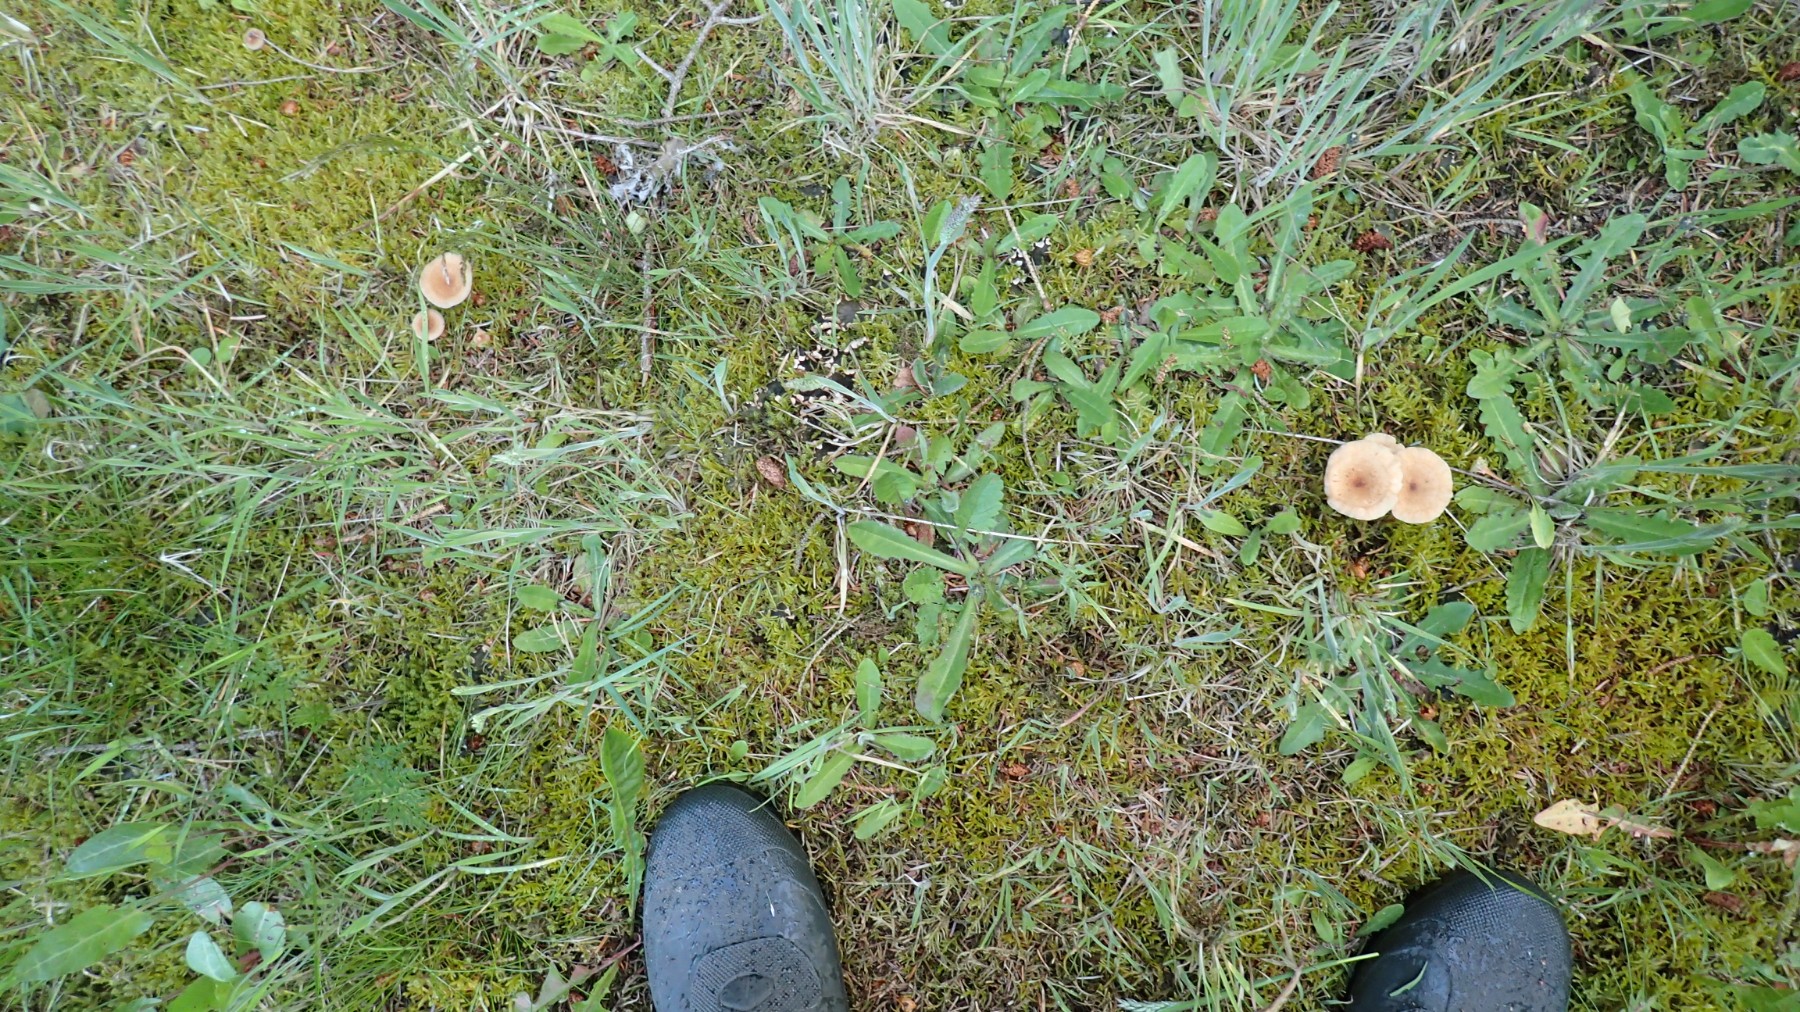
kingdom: Fungi
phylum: Basidiomycota
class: Agaricomycetes
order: Agaricales
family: Tricholomataceae
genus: Infundibulicybe
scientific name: Infundibulicybe gibba
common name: almindelig tragthat
